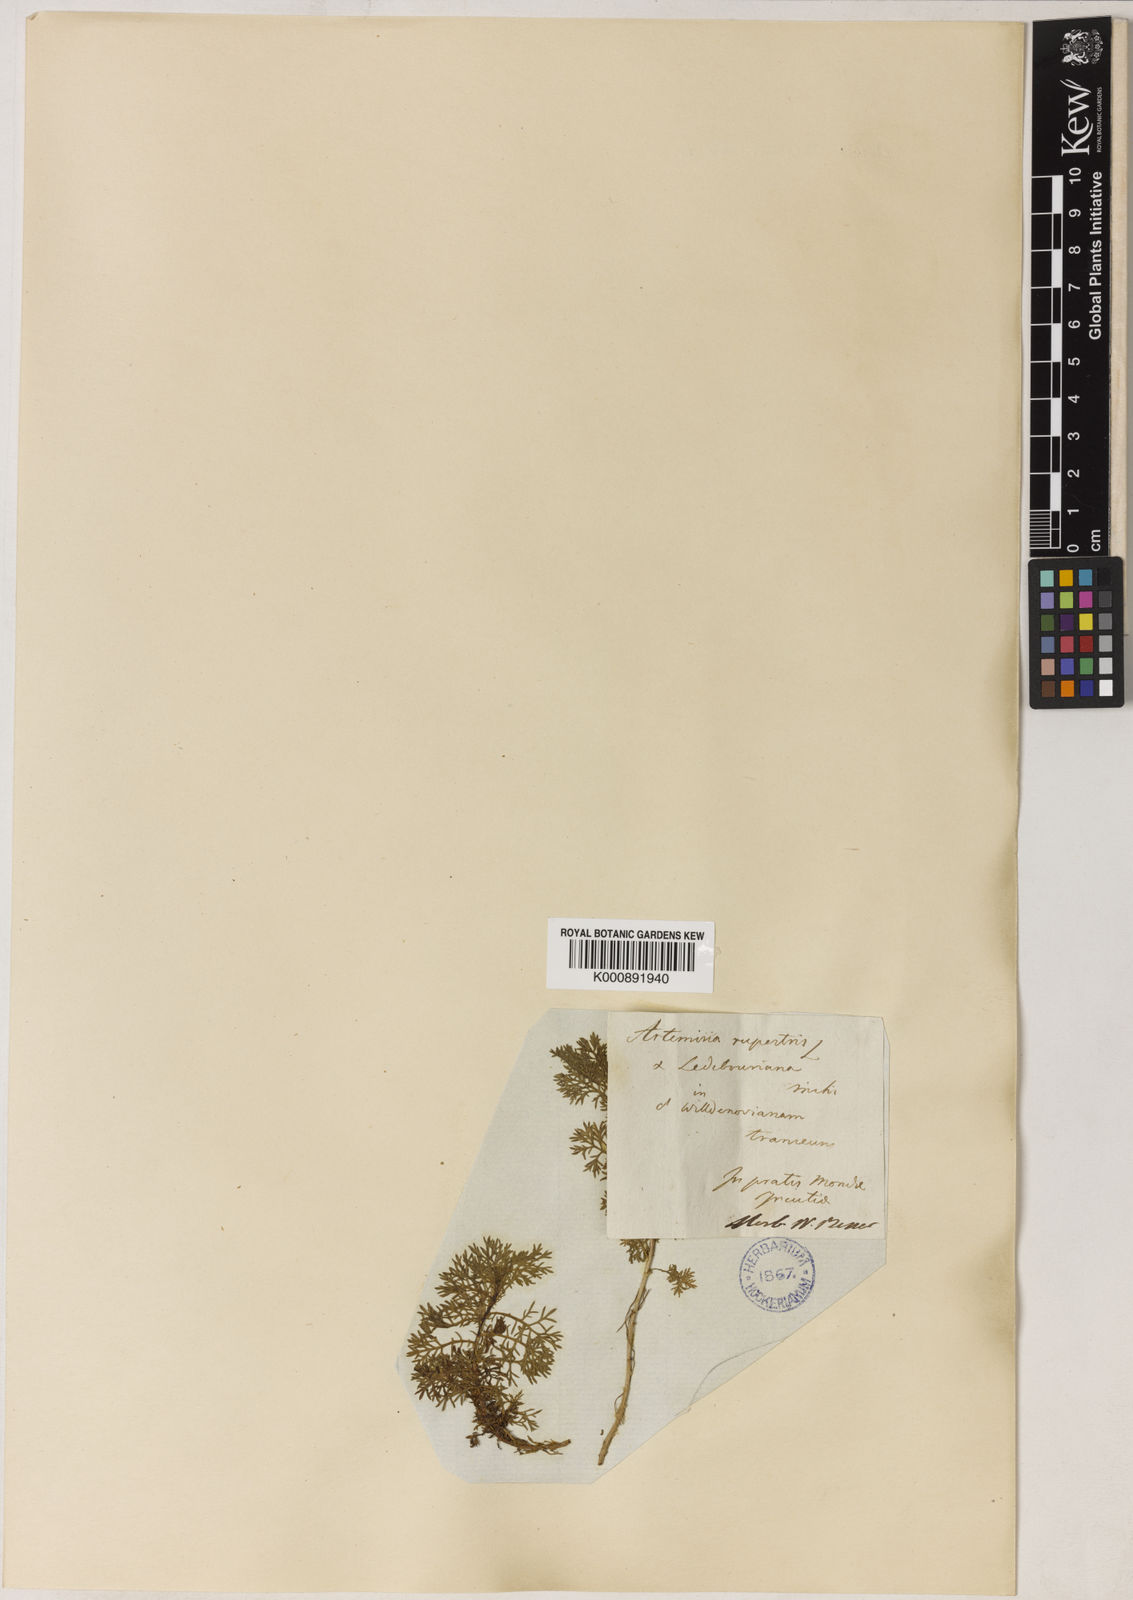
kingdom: Plantae
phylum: Tracheophyta
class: Magnoliopsida
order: Asterales
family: Asteraceae
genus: Artemisia
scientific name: Artemisia rupestris
